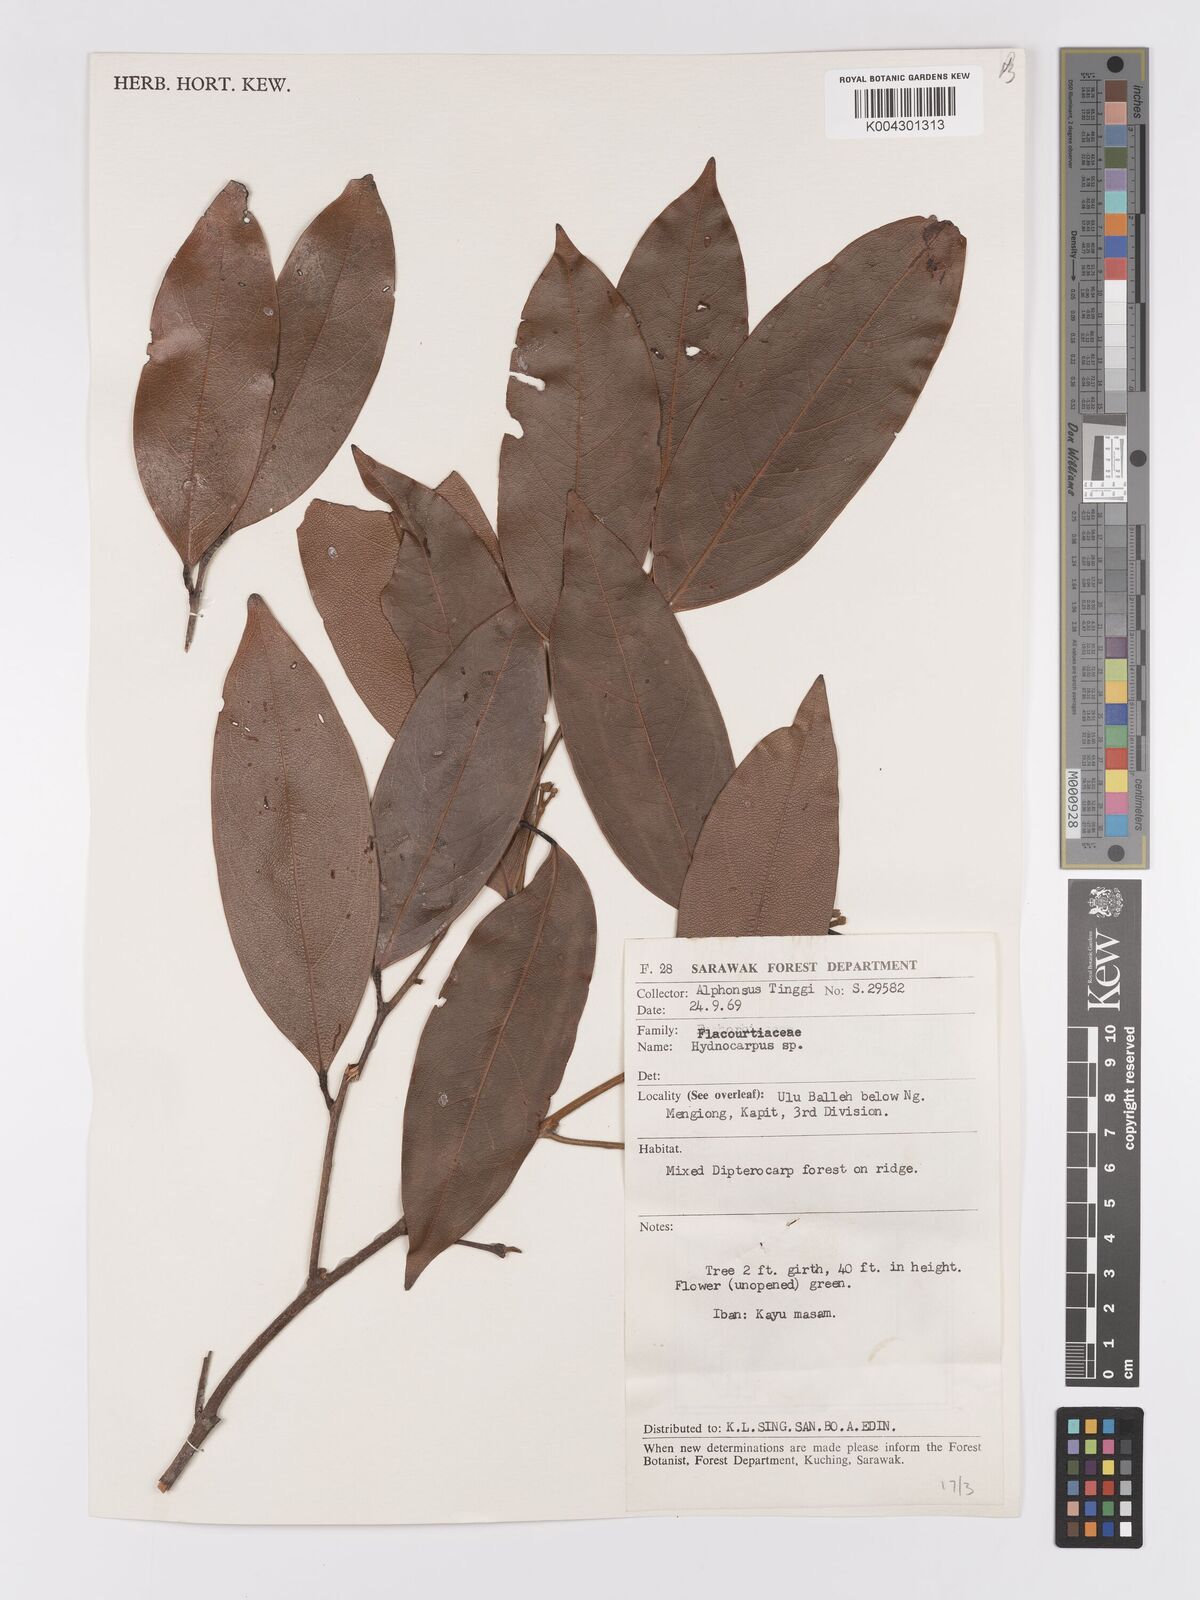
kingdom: Plantae
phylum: Tracheophyta
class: Magnoliopsida
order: Malpighiales
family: Achariaceae
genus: Hydnocarpus
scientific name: Hydnocarpus
